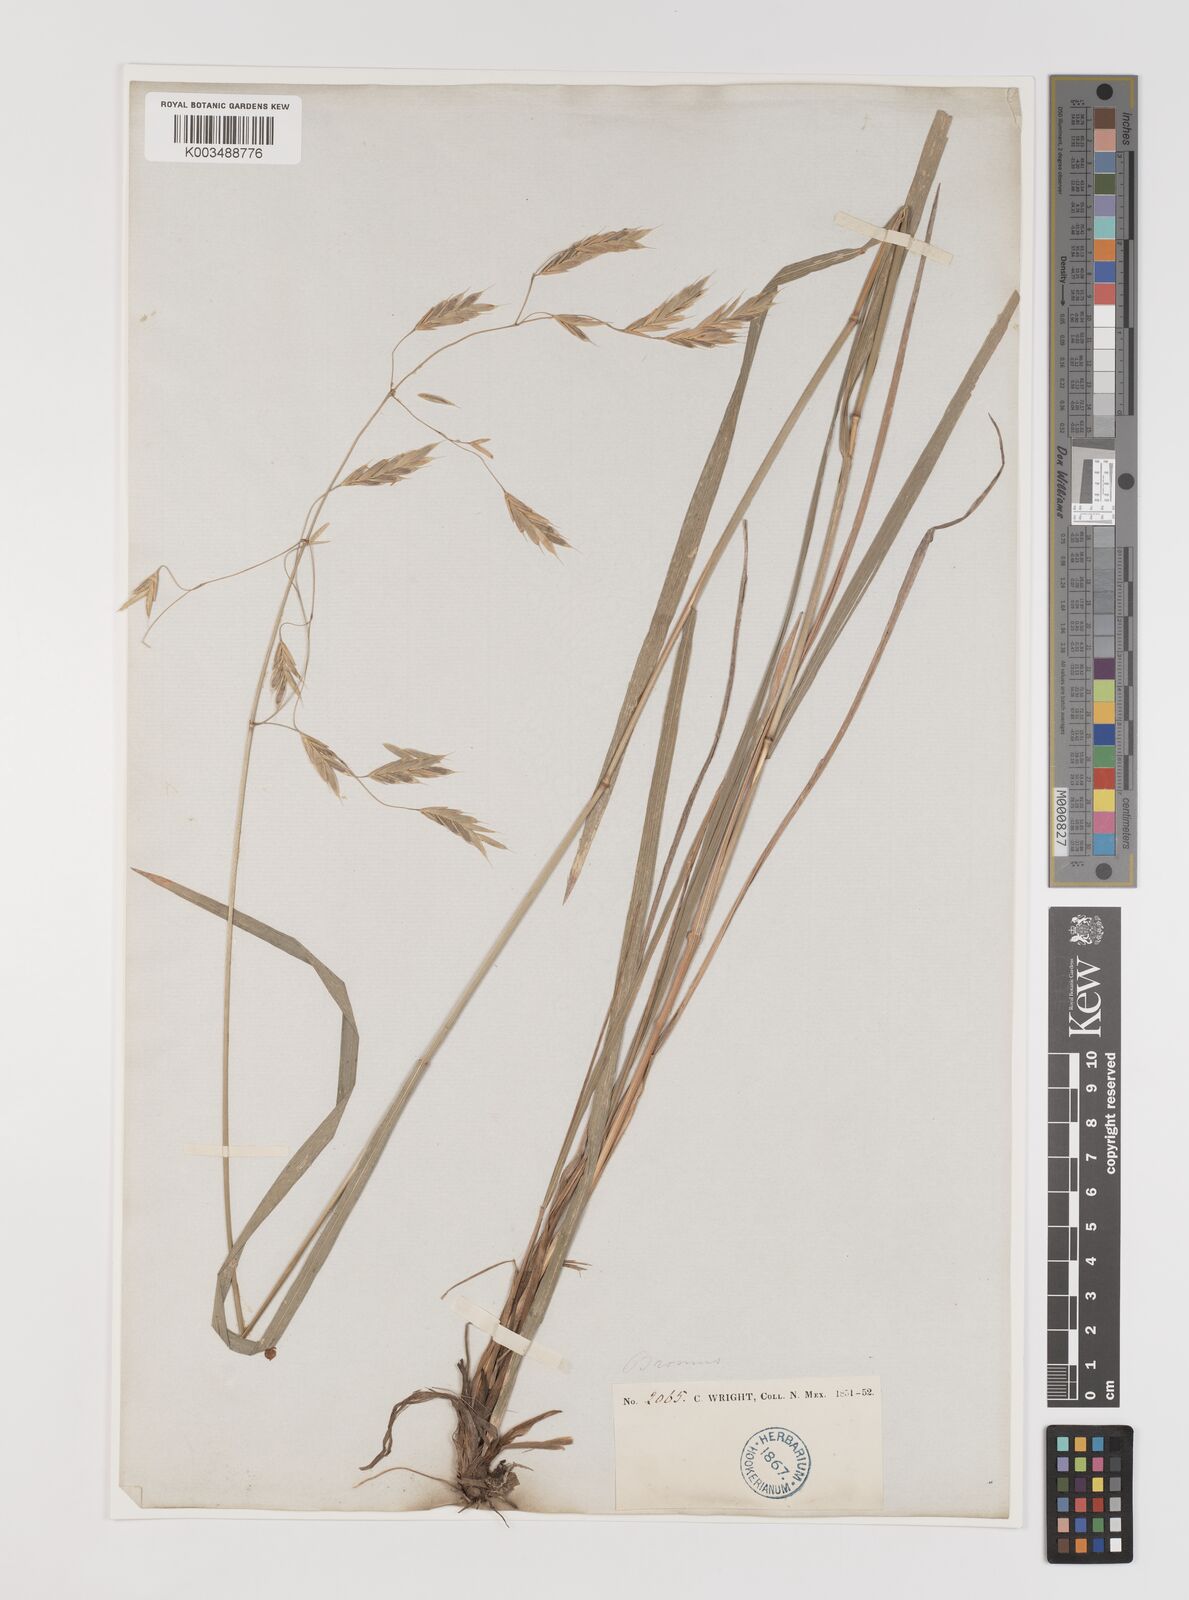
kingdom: Plantae
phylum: Tracheophyta
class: Liliopsida
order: Poales
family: Poaceae
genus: Bromus
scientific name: Bromus
